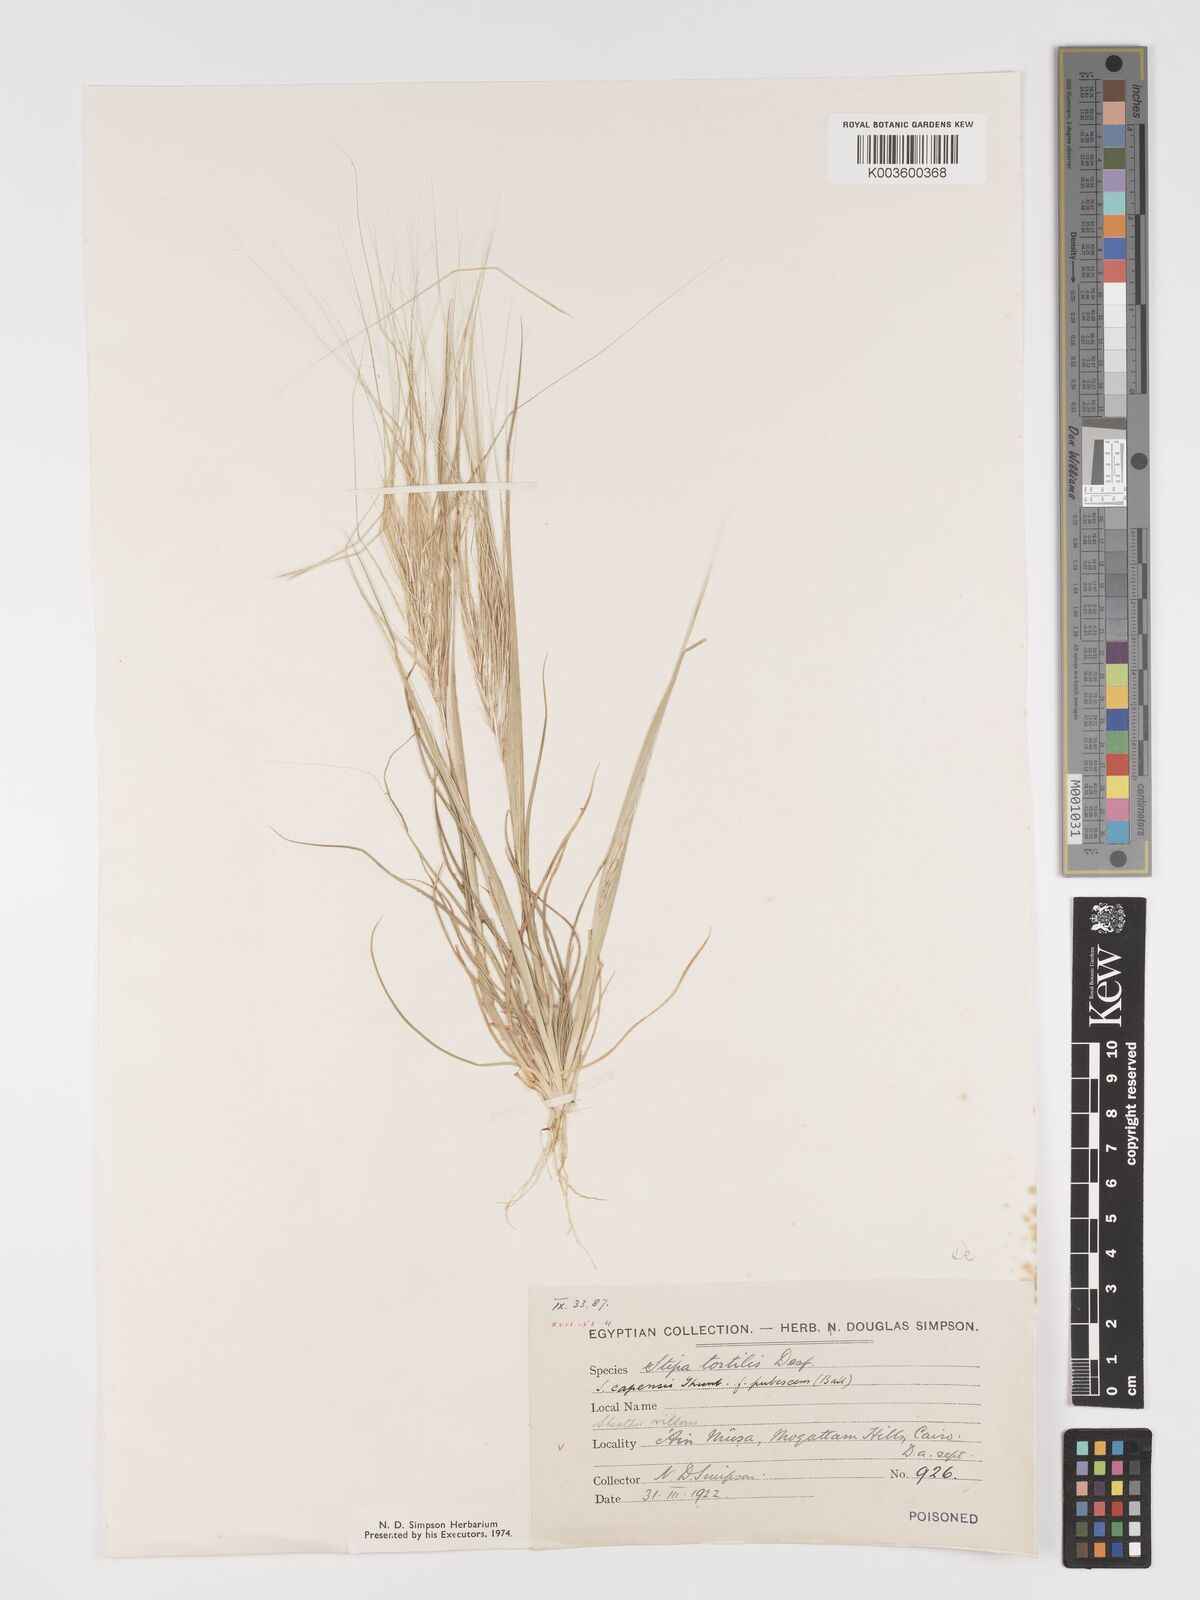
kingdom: Plantae
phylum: Tracheophyta
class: Liliopsida
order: Poales
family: Poaceae
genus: Stipellula
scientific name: Stipellula capensis
